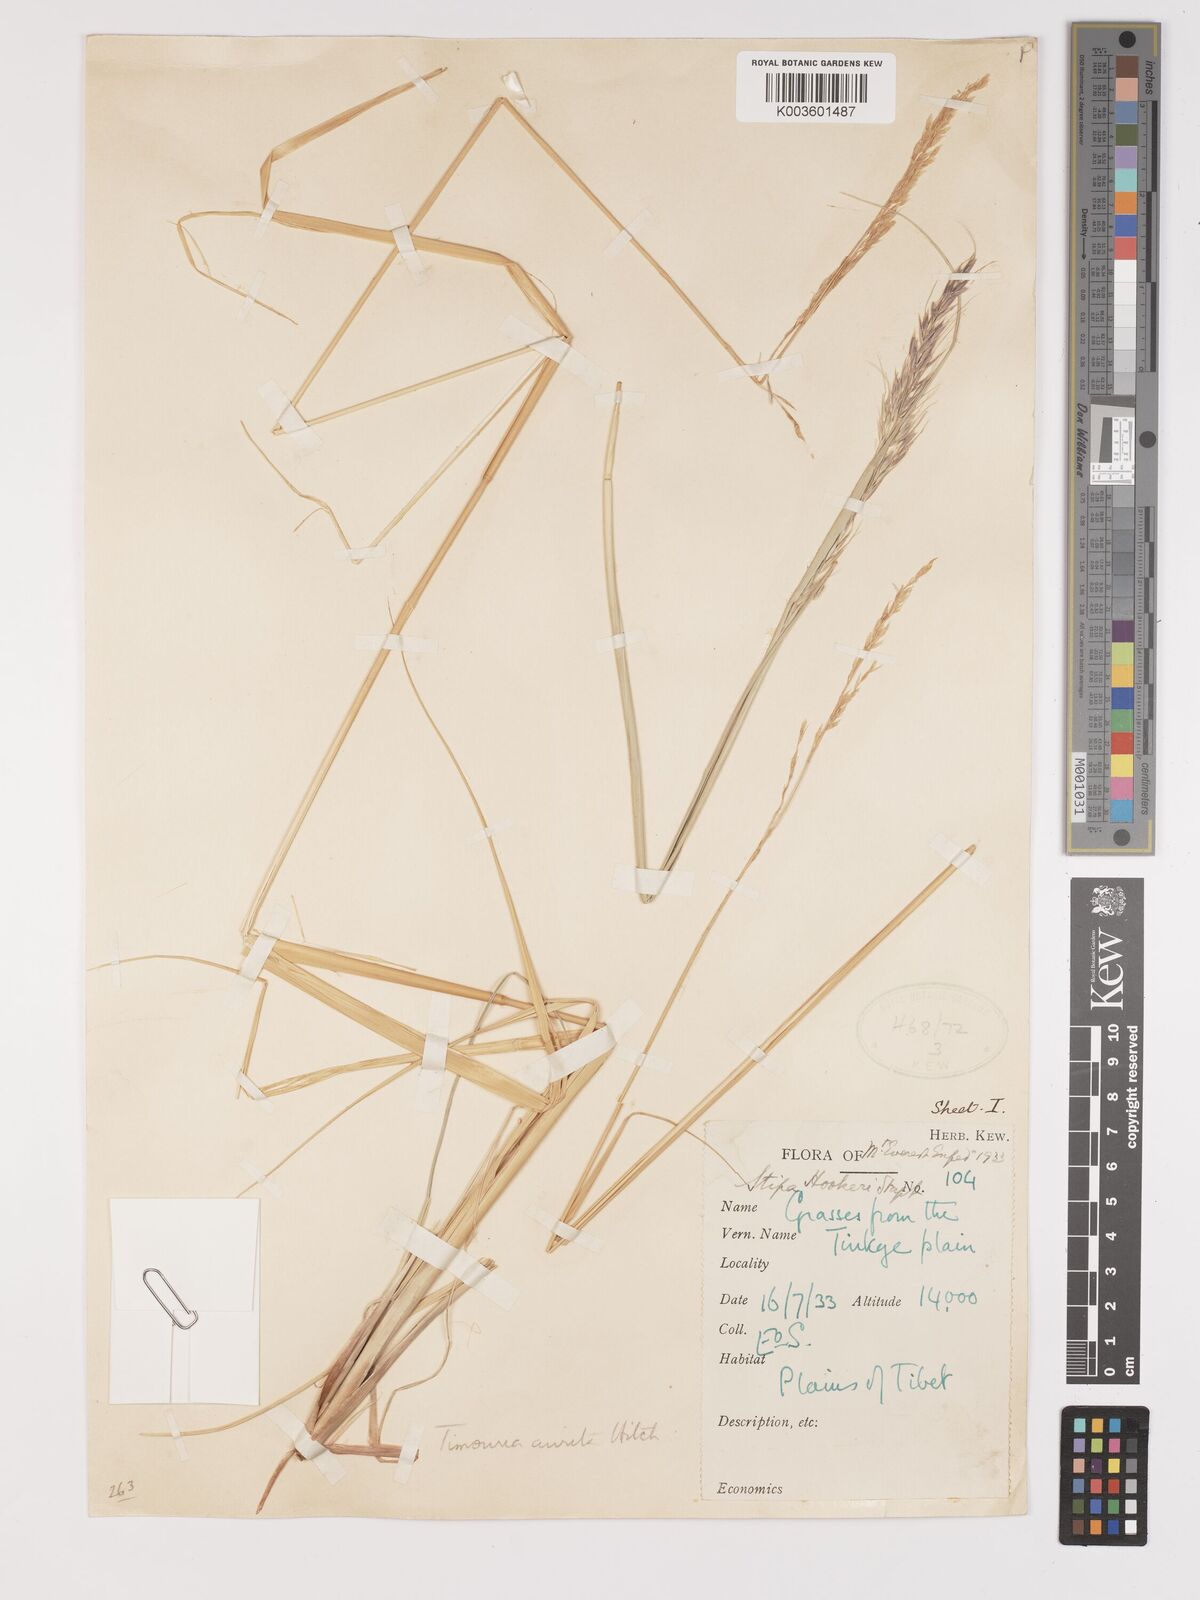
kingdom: Plantae
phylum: Tracheophyta
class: Liliopsida
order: Poales
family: Poaceae
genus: Trikeraia
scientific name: Trikeraia hookeri
